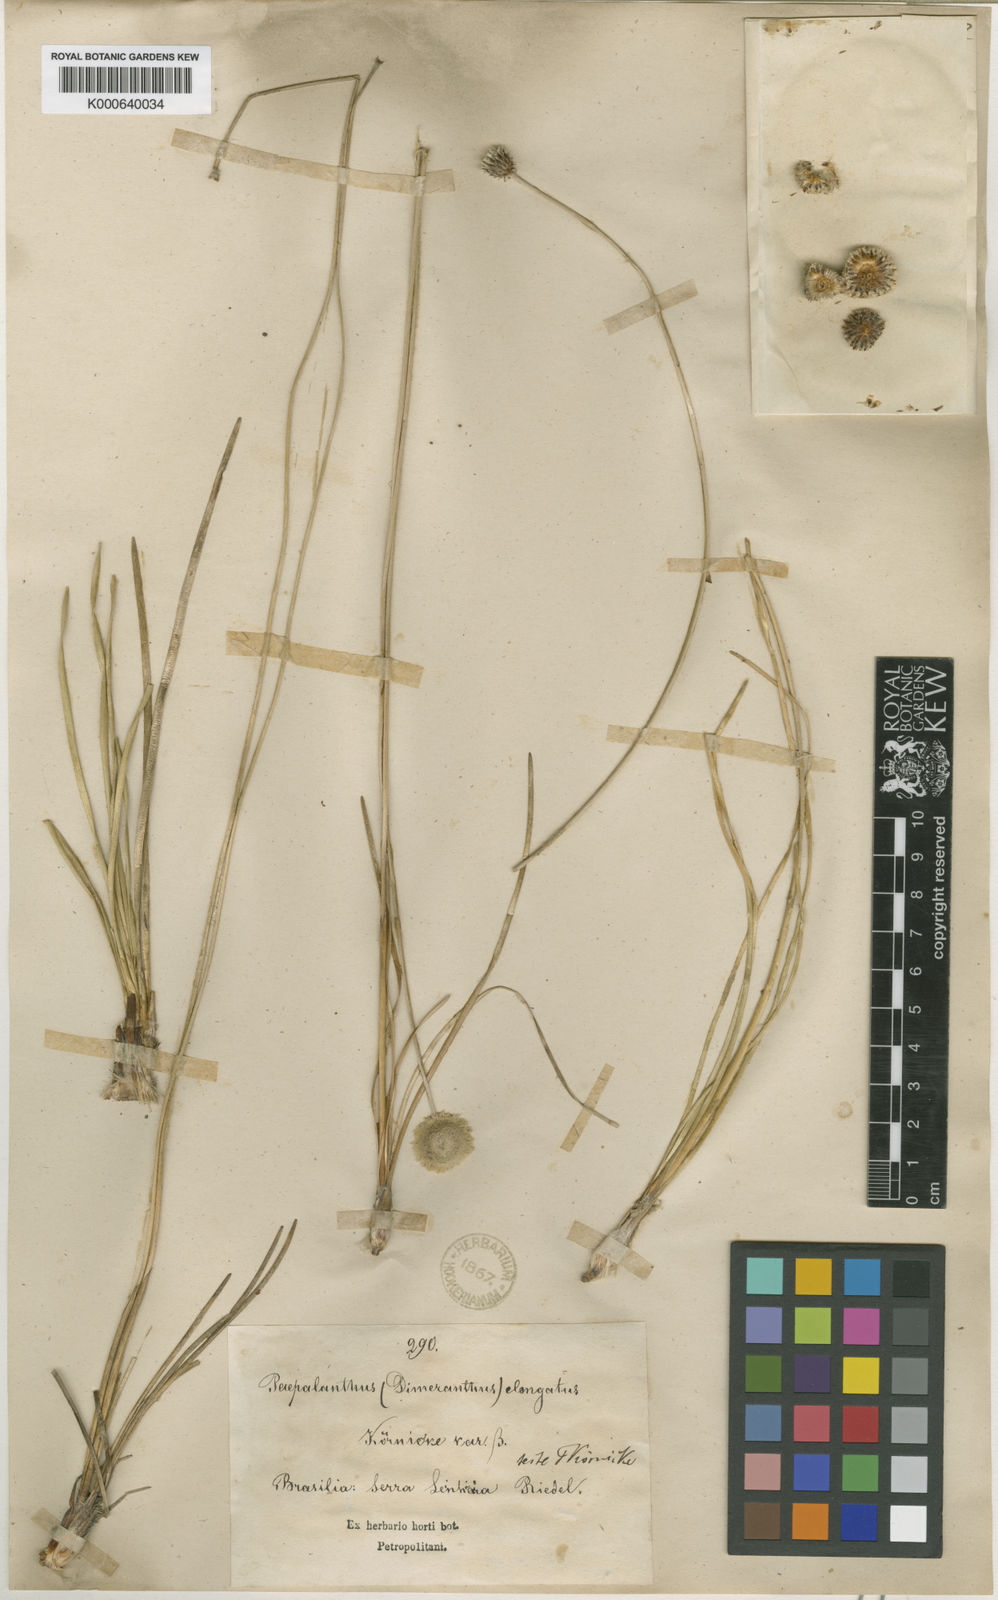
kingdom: Plantae
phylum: Tracheophyta
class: Liliopsida
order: Poales
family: Eriocaulaceae
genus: Paepalanthus
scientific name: Paepalanthus
